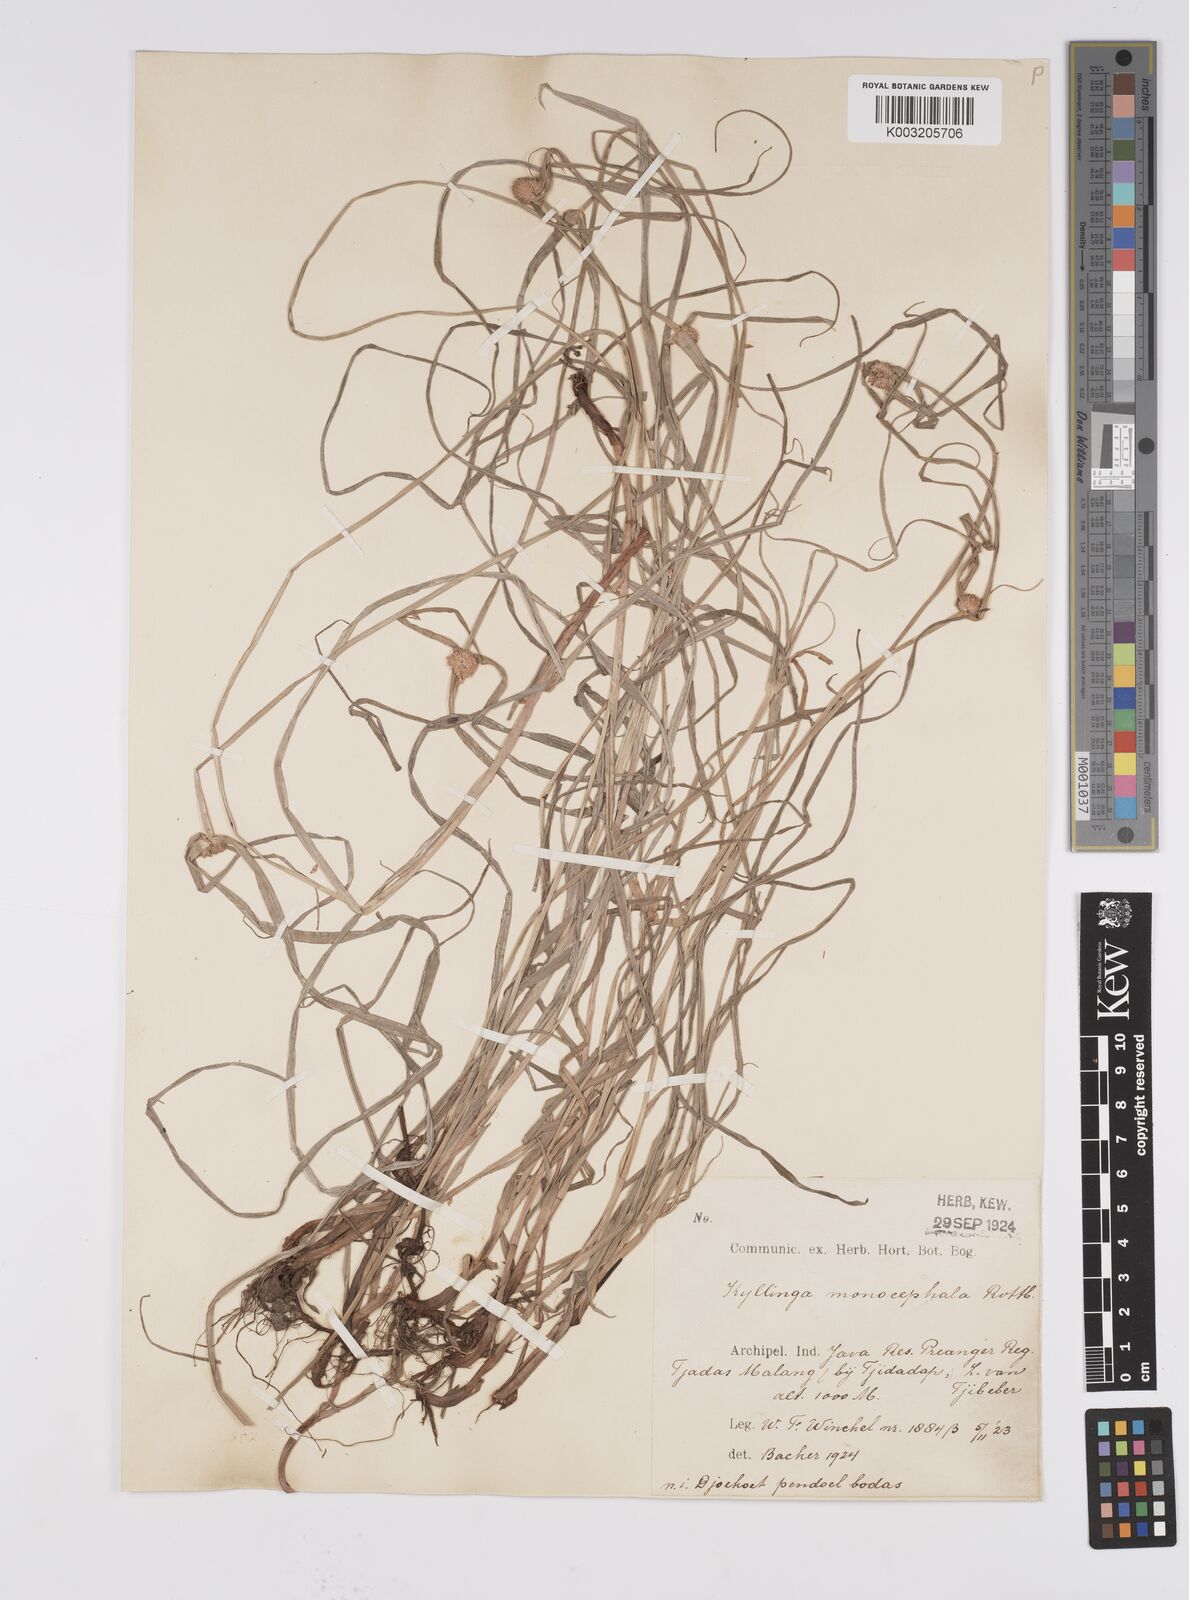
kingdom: Plantae
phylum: Tracheophyta
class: Liliopsida
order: Poales
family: Cyperaceae
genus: Cyperus
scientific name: Cyperus nemoralis
